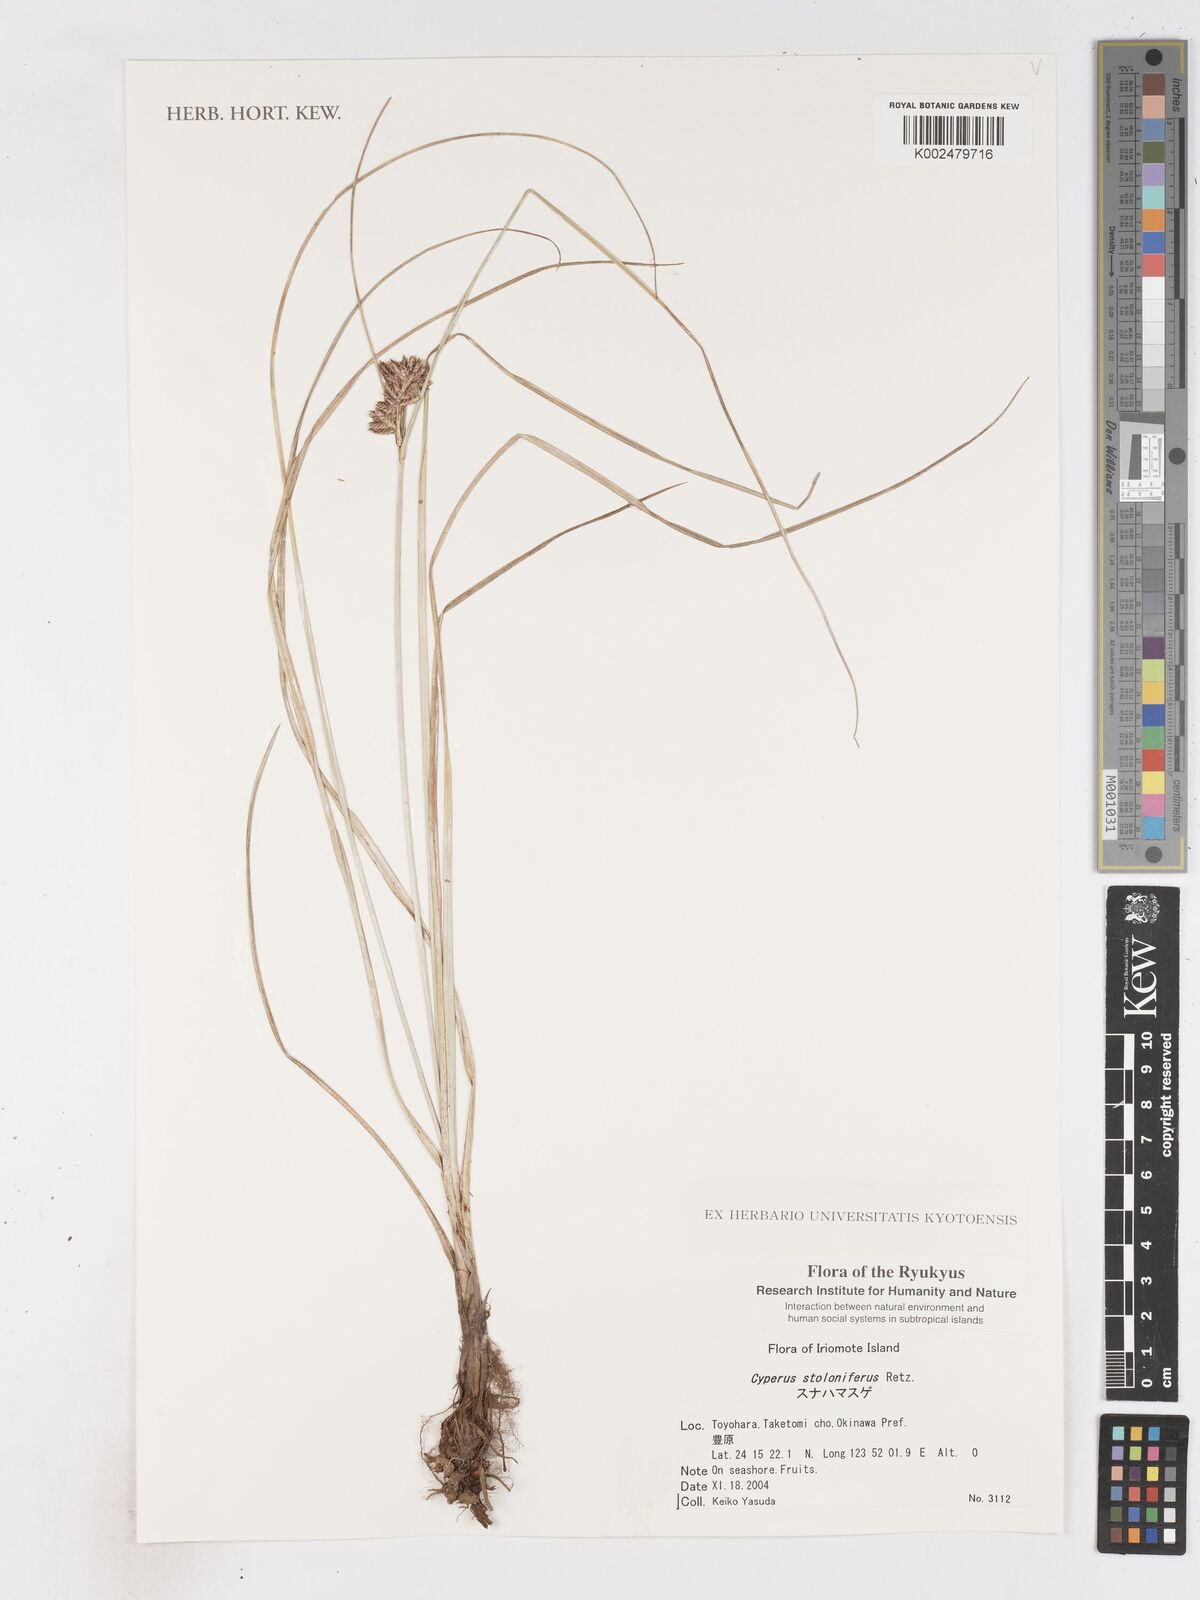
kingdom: Plantae
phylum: Tracheophyta
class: Liliopsida
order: Poales
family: Cyperaceae
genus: Cyperus
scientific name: Cyperus stolonifer
